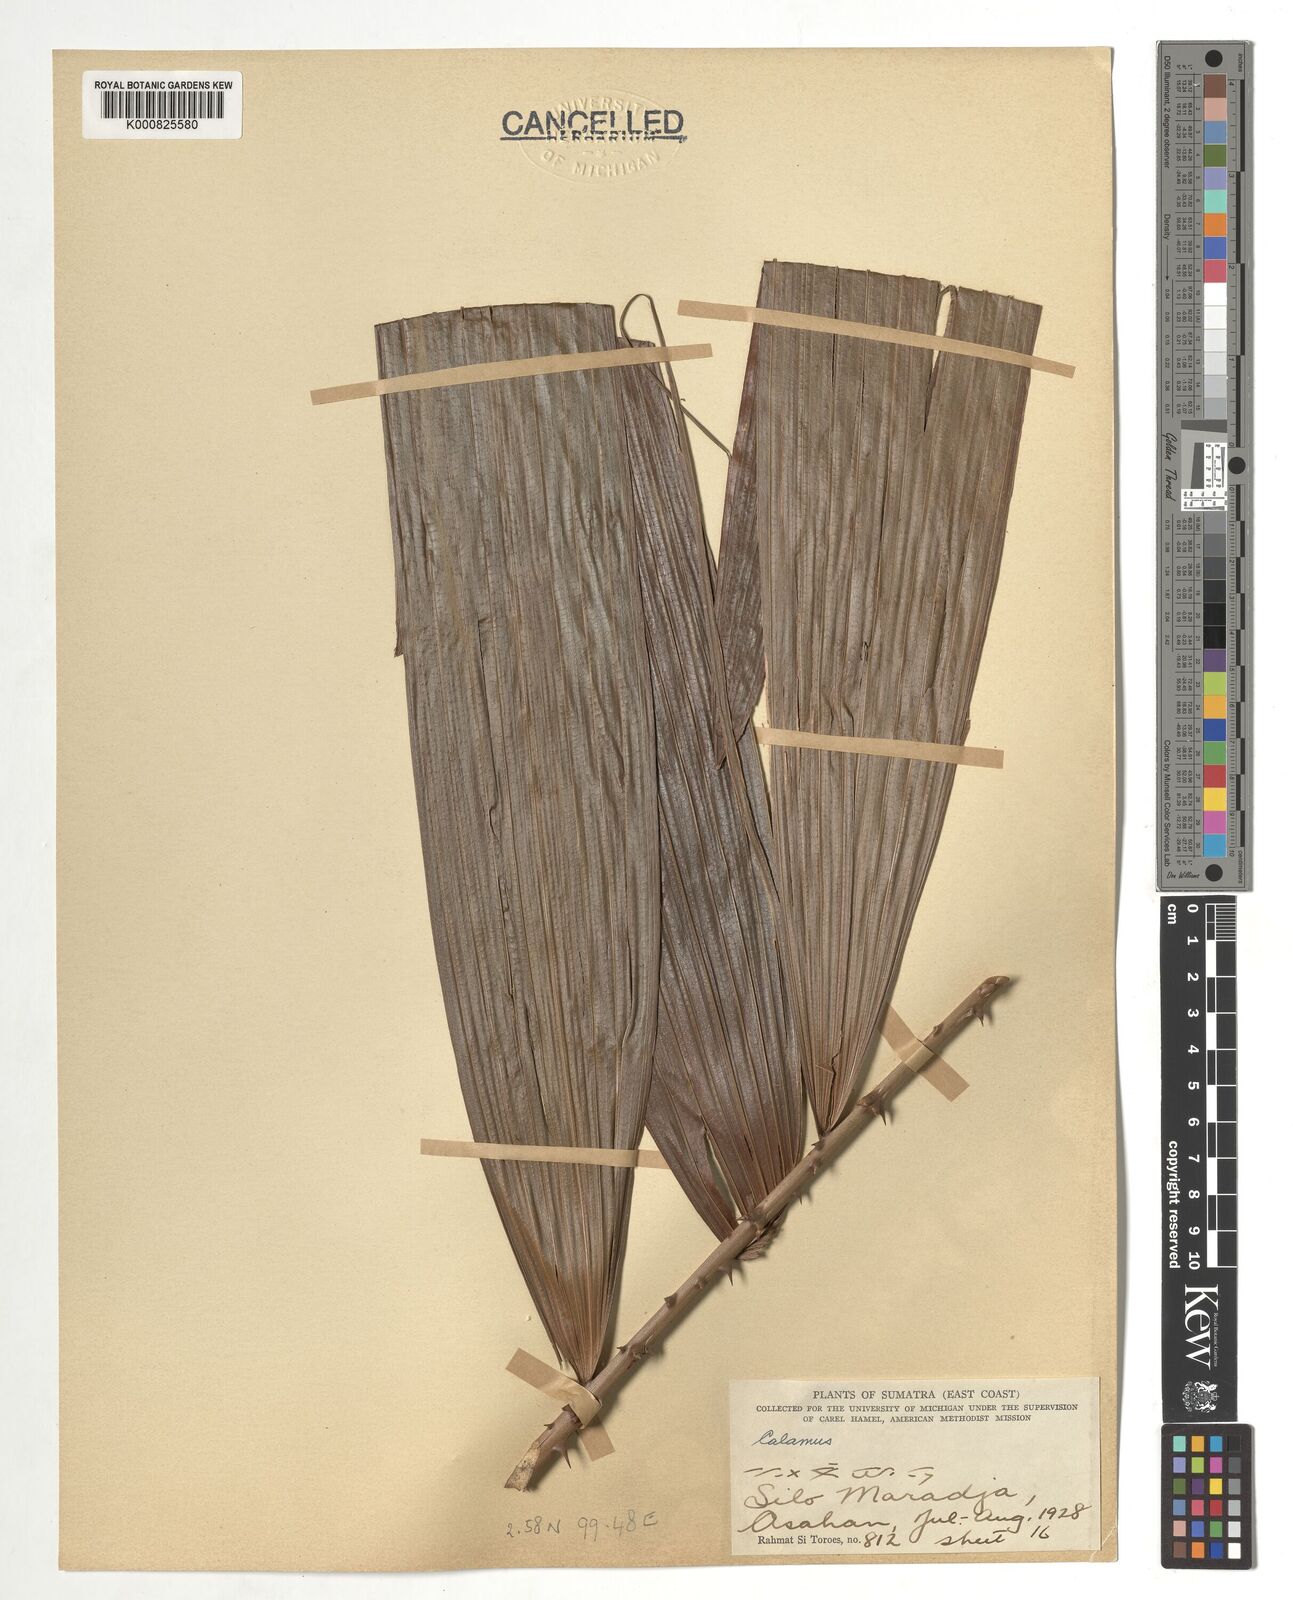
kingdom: Plantae
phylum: Tracheophyta
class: Liliopsida
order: Arecales
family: Arecaceae
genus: Calamus
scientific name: Calamus
